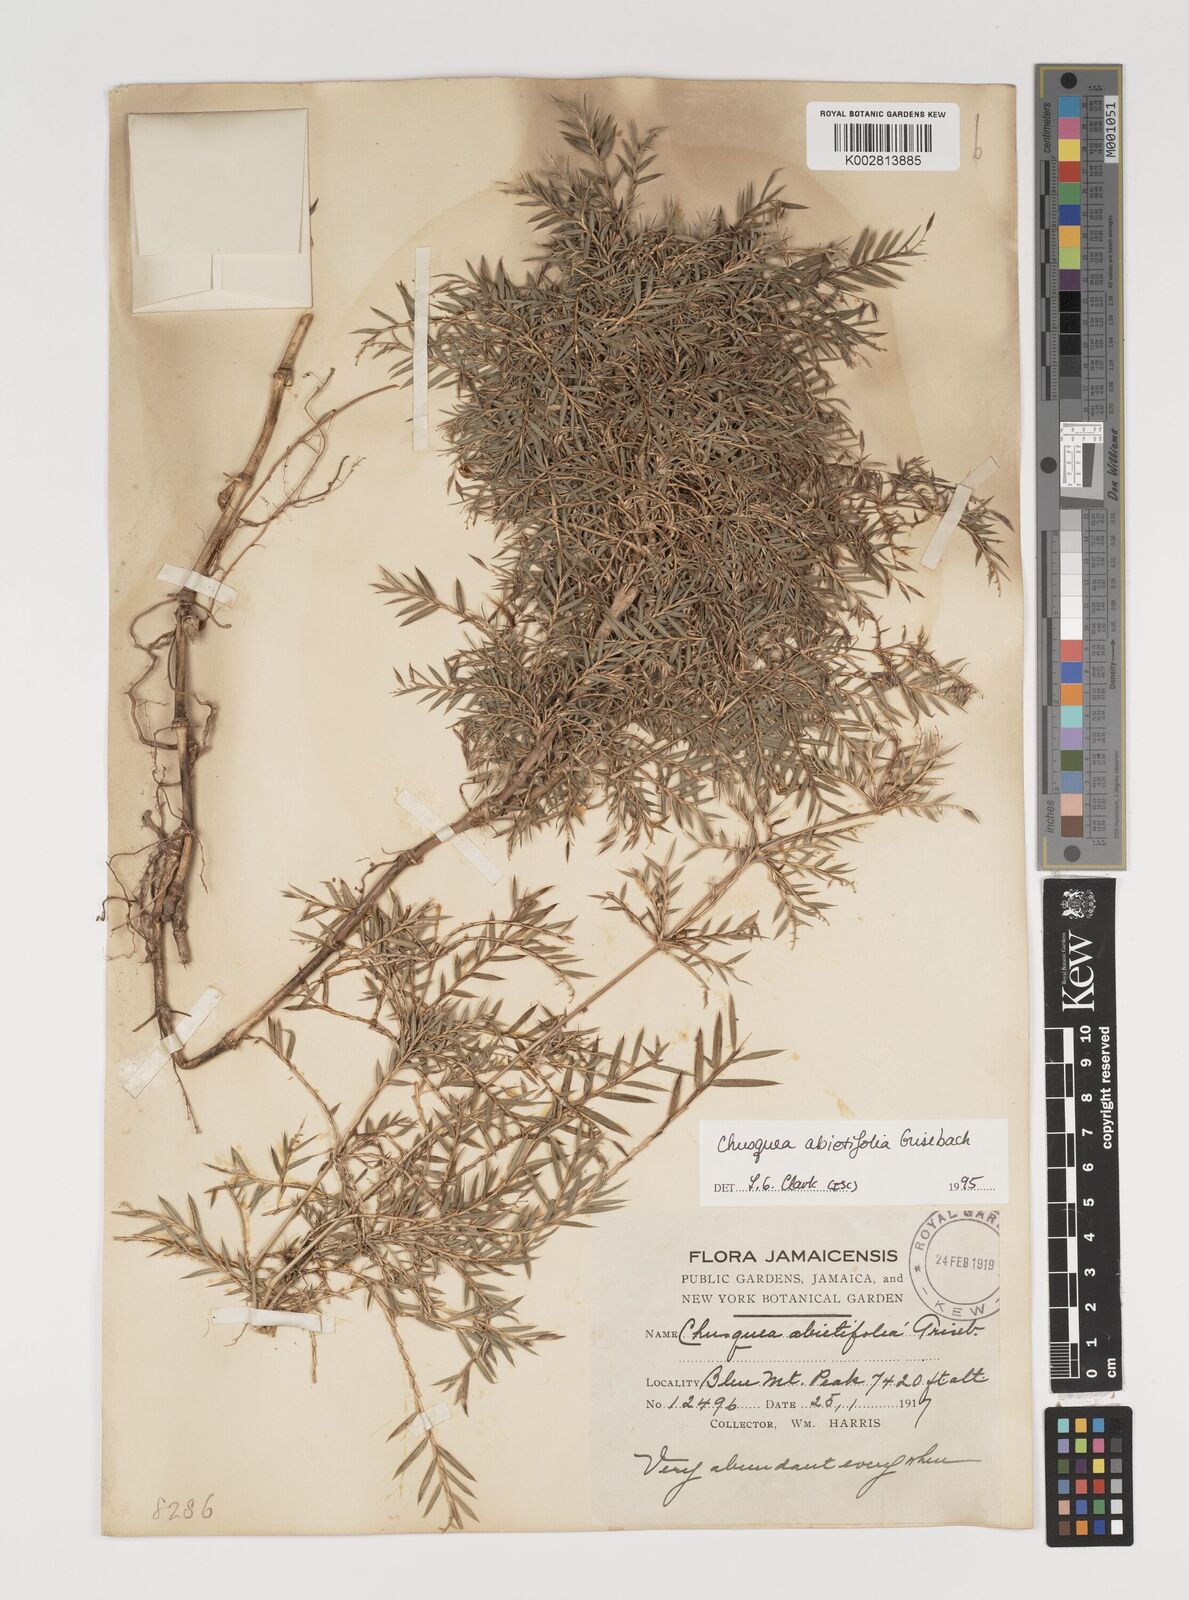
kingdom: Plantae
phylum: Tracheophyta
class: Liliopsida
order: Poales
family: Poaceae
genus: Chusquea
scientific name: Chusquea abietifolia
